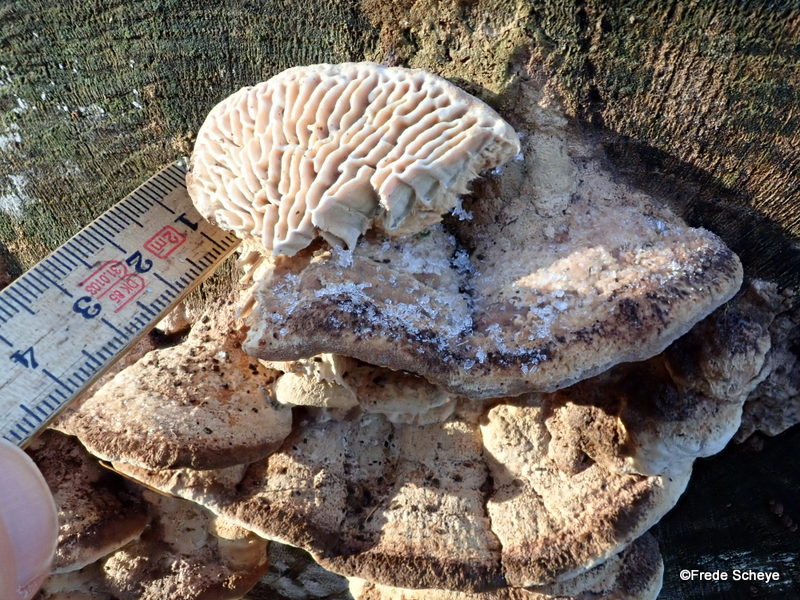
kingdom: Fungi
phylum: Basidiomycota
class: Agaricomycetes
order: Polyporales
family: Fomitopsidaceae
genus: Daedalea
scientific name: Daedalea quercina
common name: ege-labyrintsvamp
